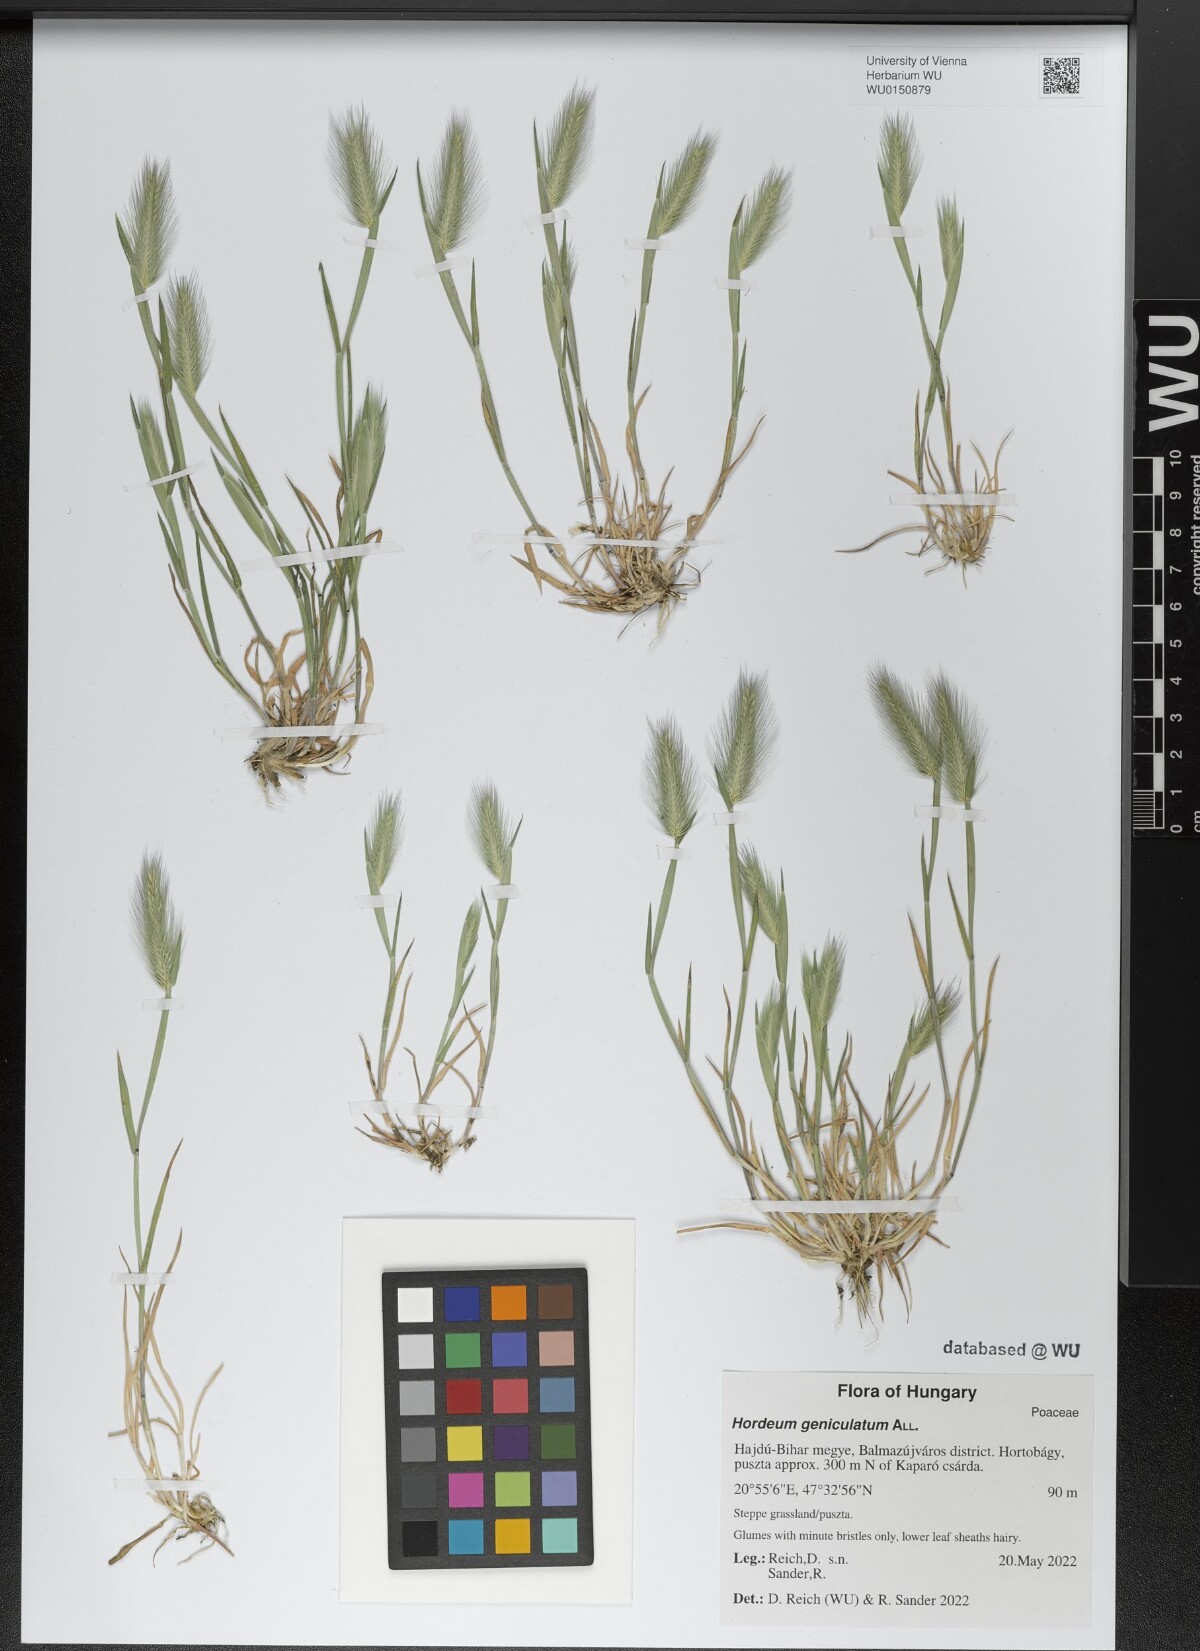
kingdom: Plantae
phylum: Tracheophyta
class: Liliopsida
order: Poales
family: Poaceae
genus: Hordeum
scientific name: Hordeum marinum
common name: Sea barley
